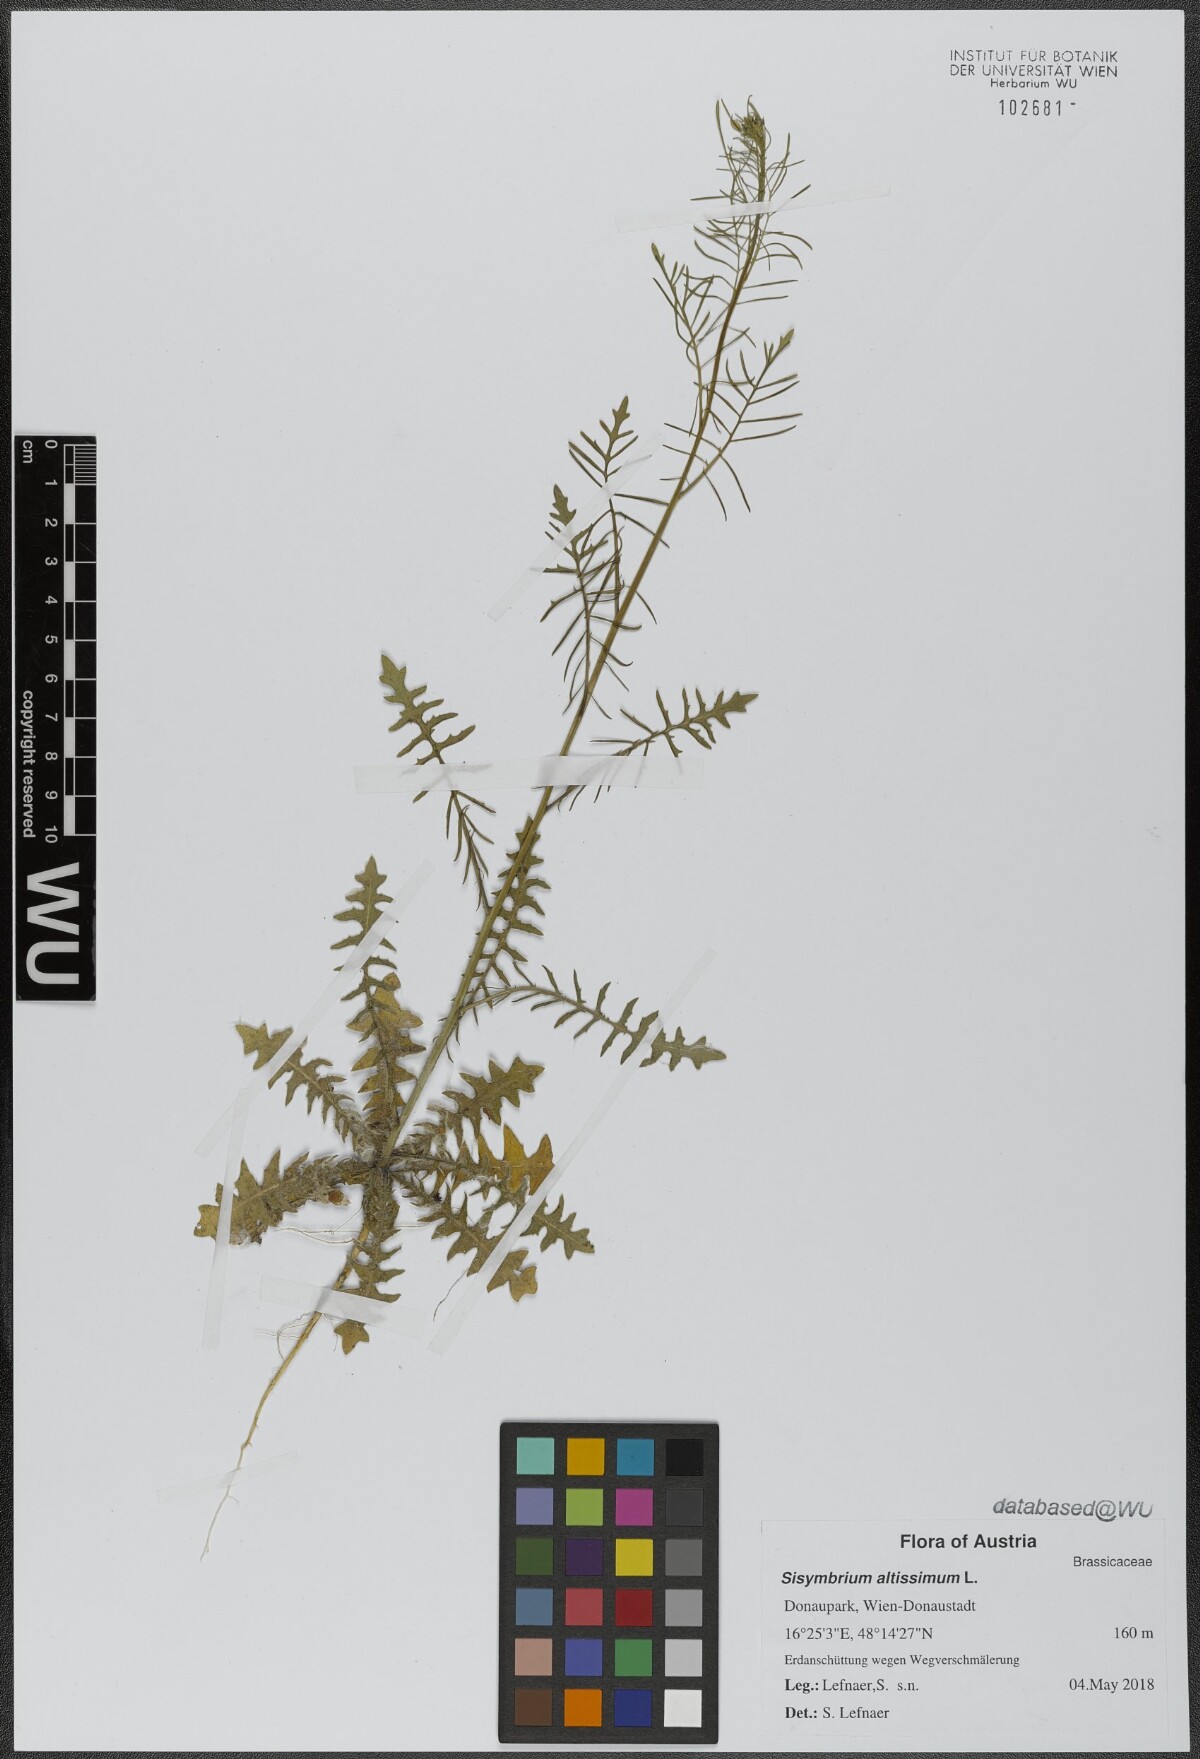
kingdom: Plantae
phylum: Tracheophyta
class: Magnoliopsida
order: Brassicales
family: Brassicaceae
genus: Sisymbrium
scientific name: Sisymbrium altissimum
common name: Tall rocket
